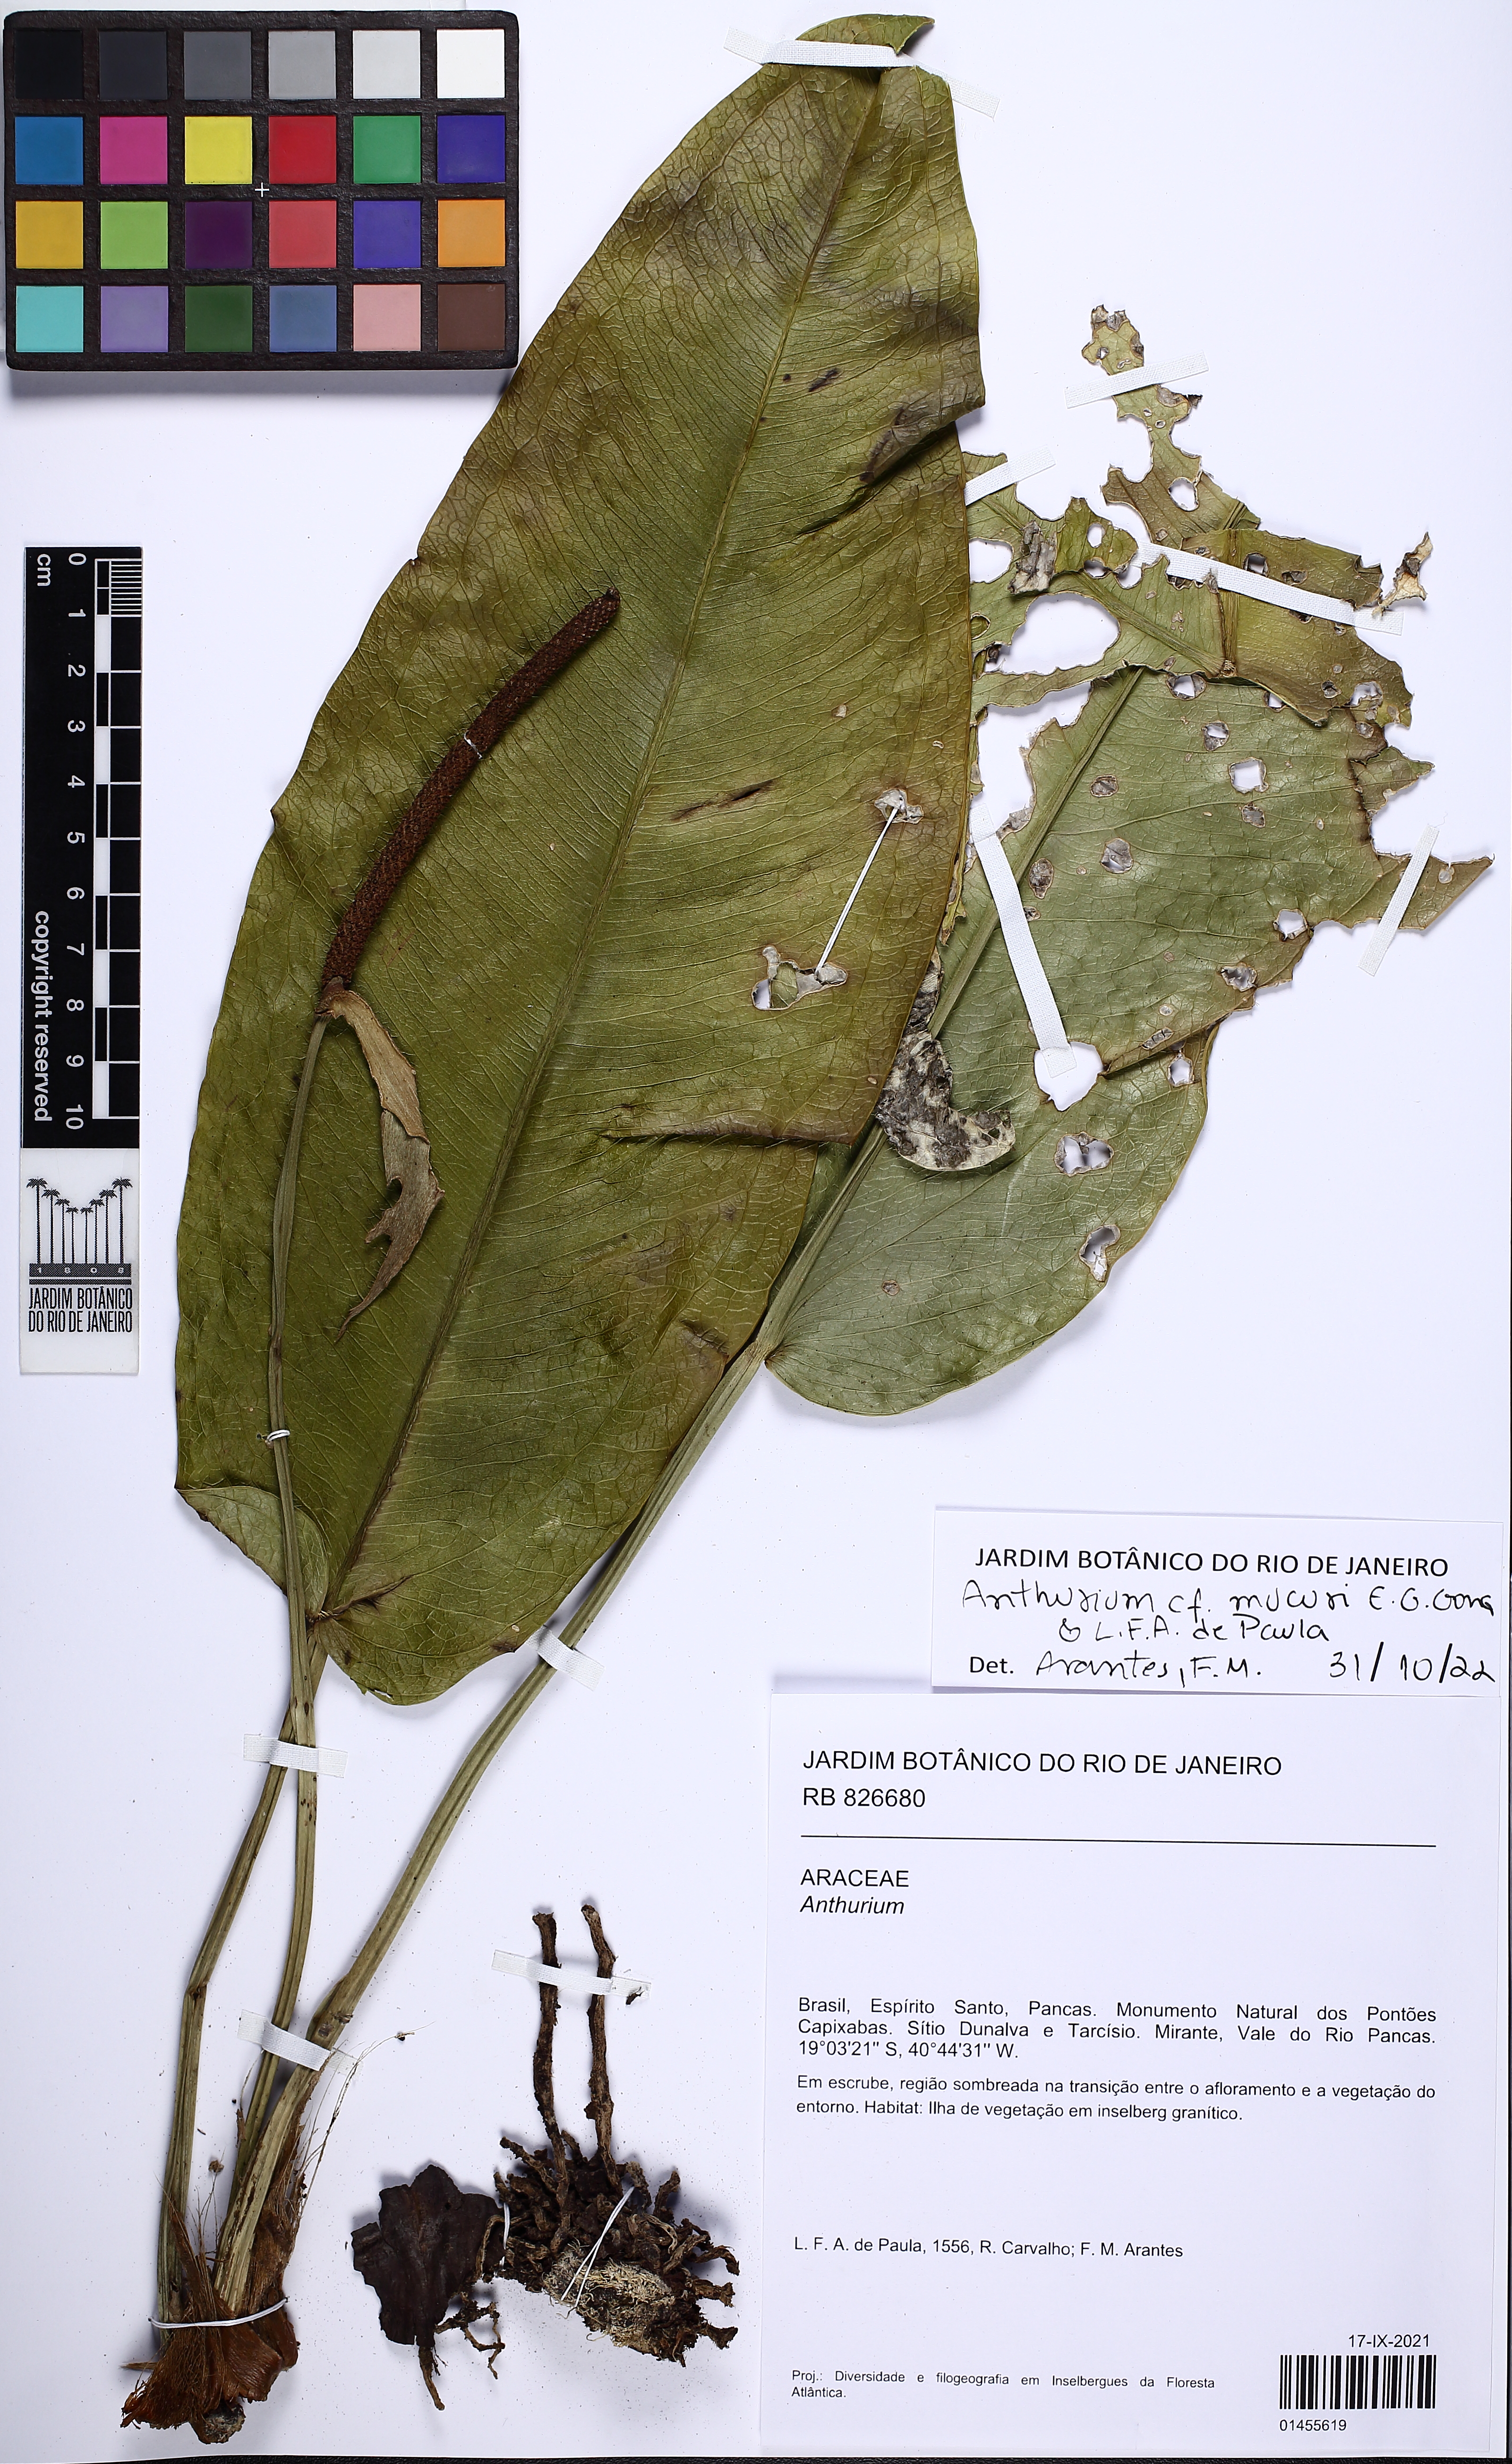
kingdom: Plantae
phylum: Tracheophyta
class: Liliopsida
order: Alismatales
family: Araceae
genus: Anthurium
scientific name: Anthurium mucuri
